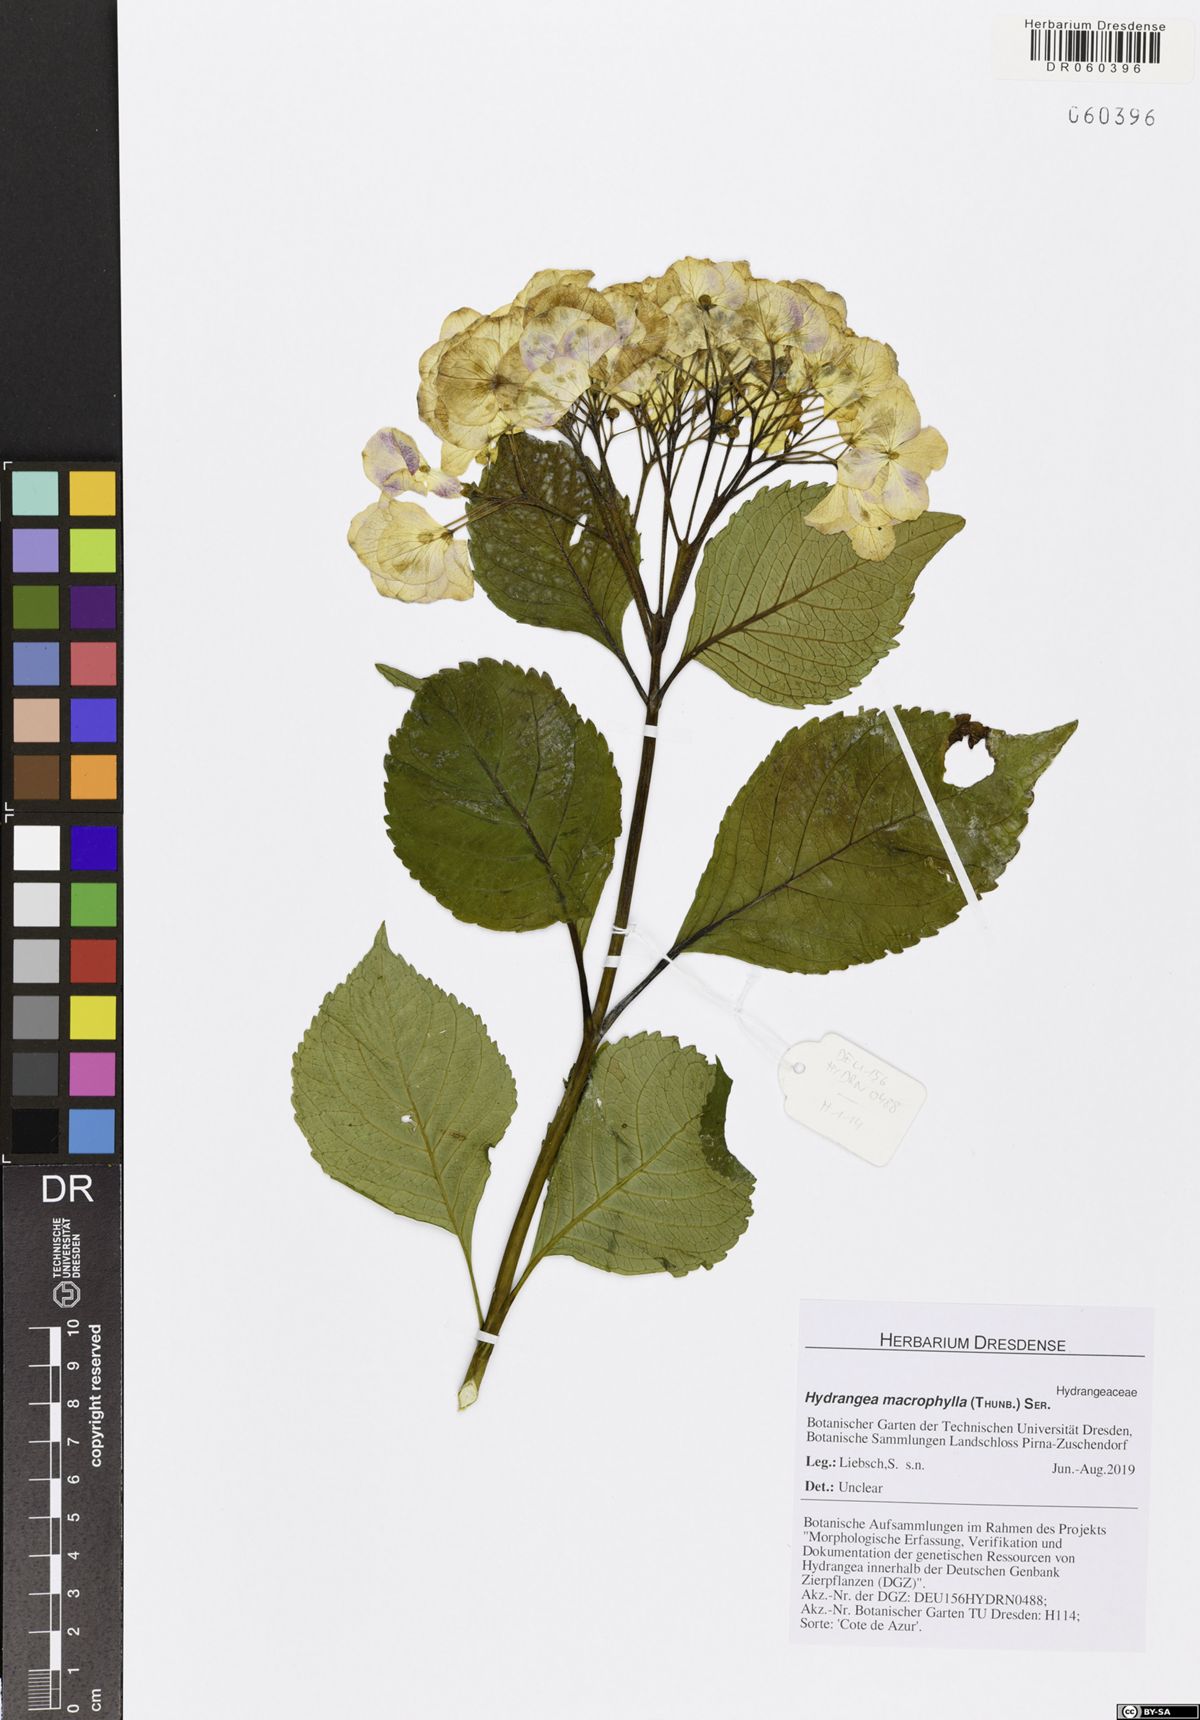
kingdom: Plantae
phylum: Tracheophyta
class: Magnoliopsida
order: Cornales
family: Hydrangeaceae
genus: Hydrangea
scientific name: Hydrangea macrophylla
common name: Hydrangea
